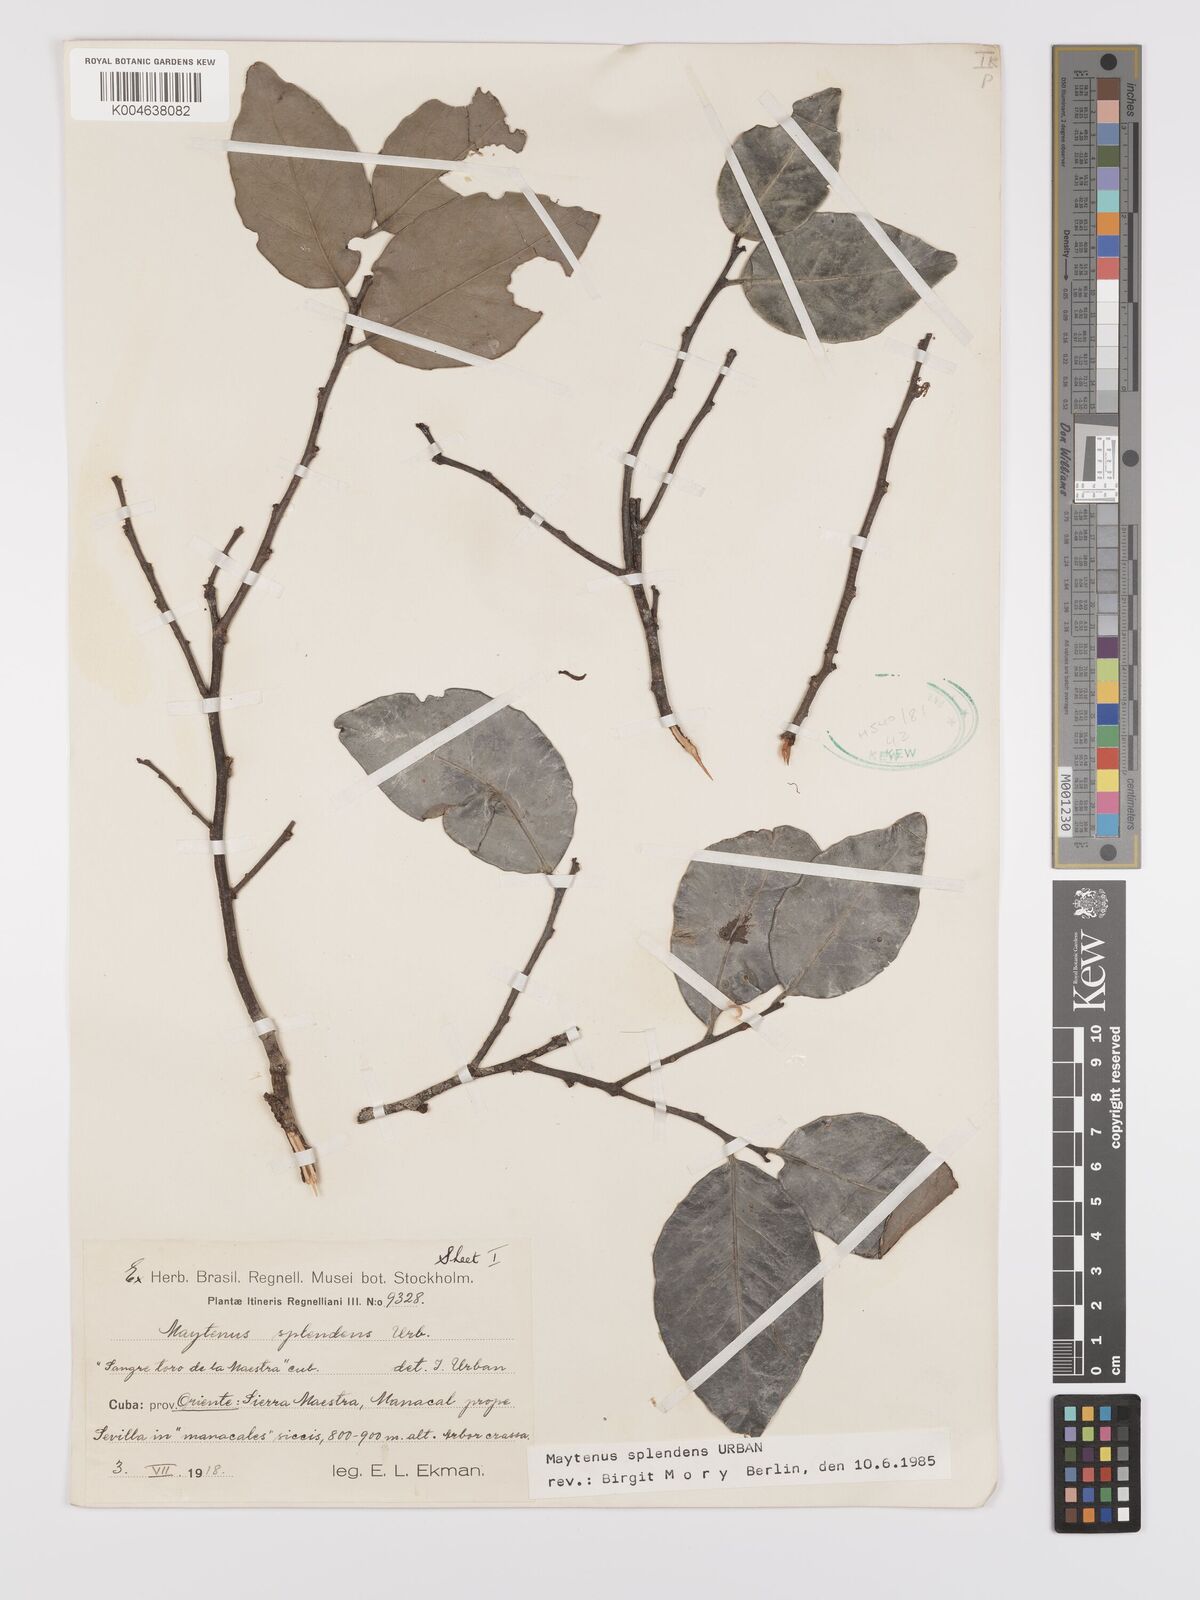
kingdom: Plantae
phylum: Tracheophyta
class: Magnoliopsida
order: Celastrales
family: Celastraceae
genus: Monteverdia
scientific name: Monteverdia splendens
